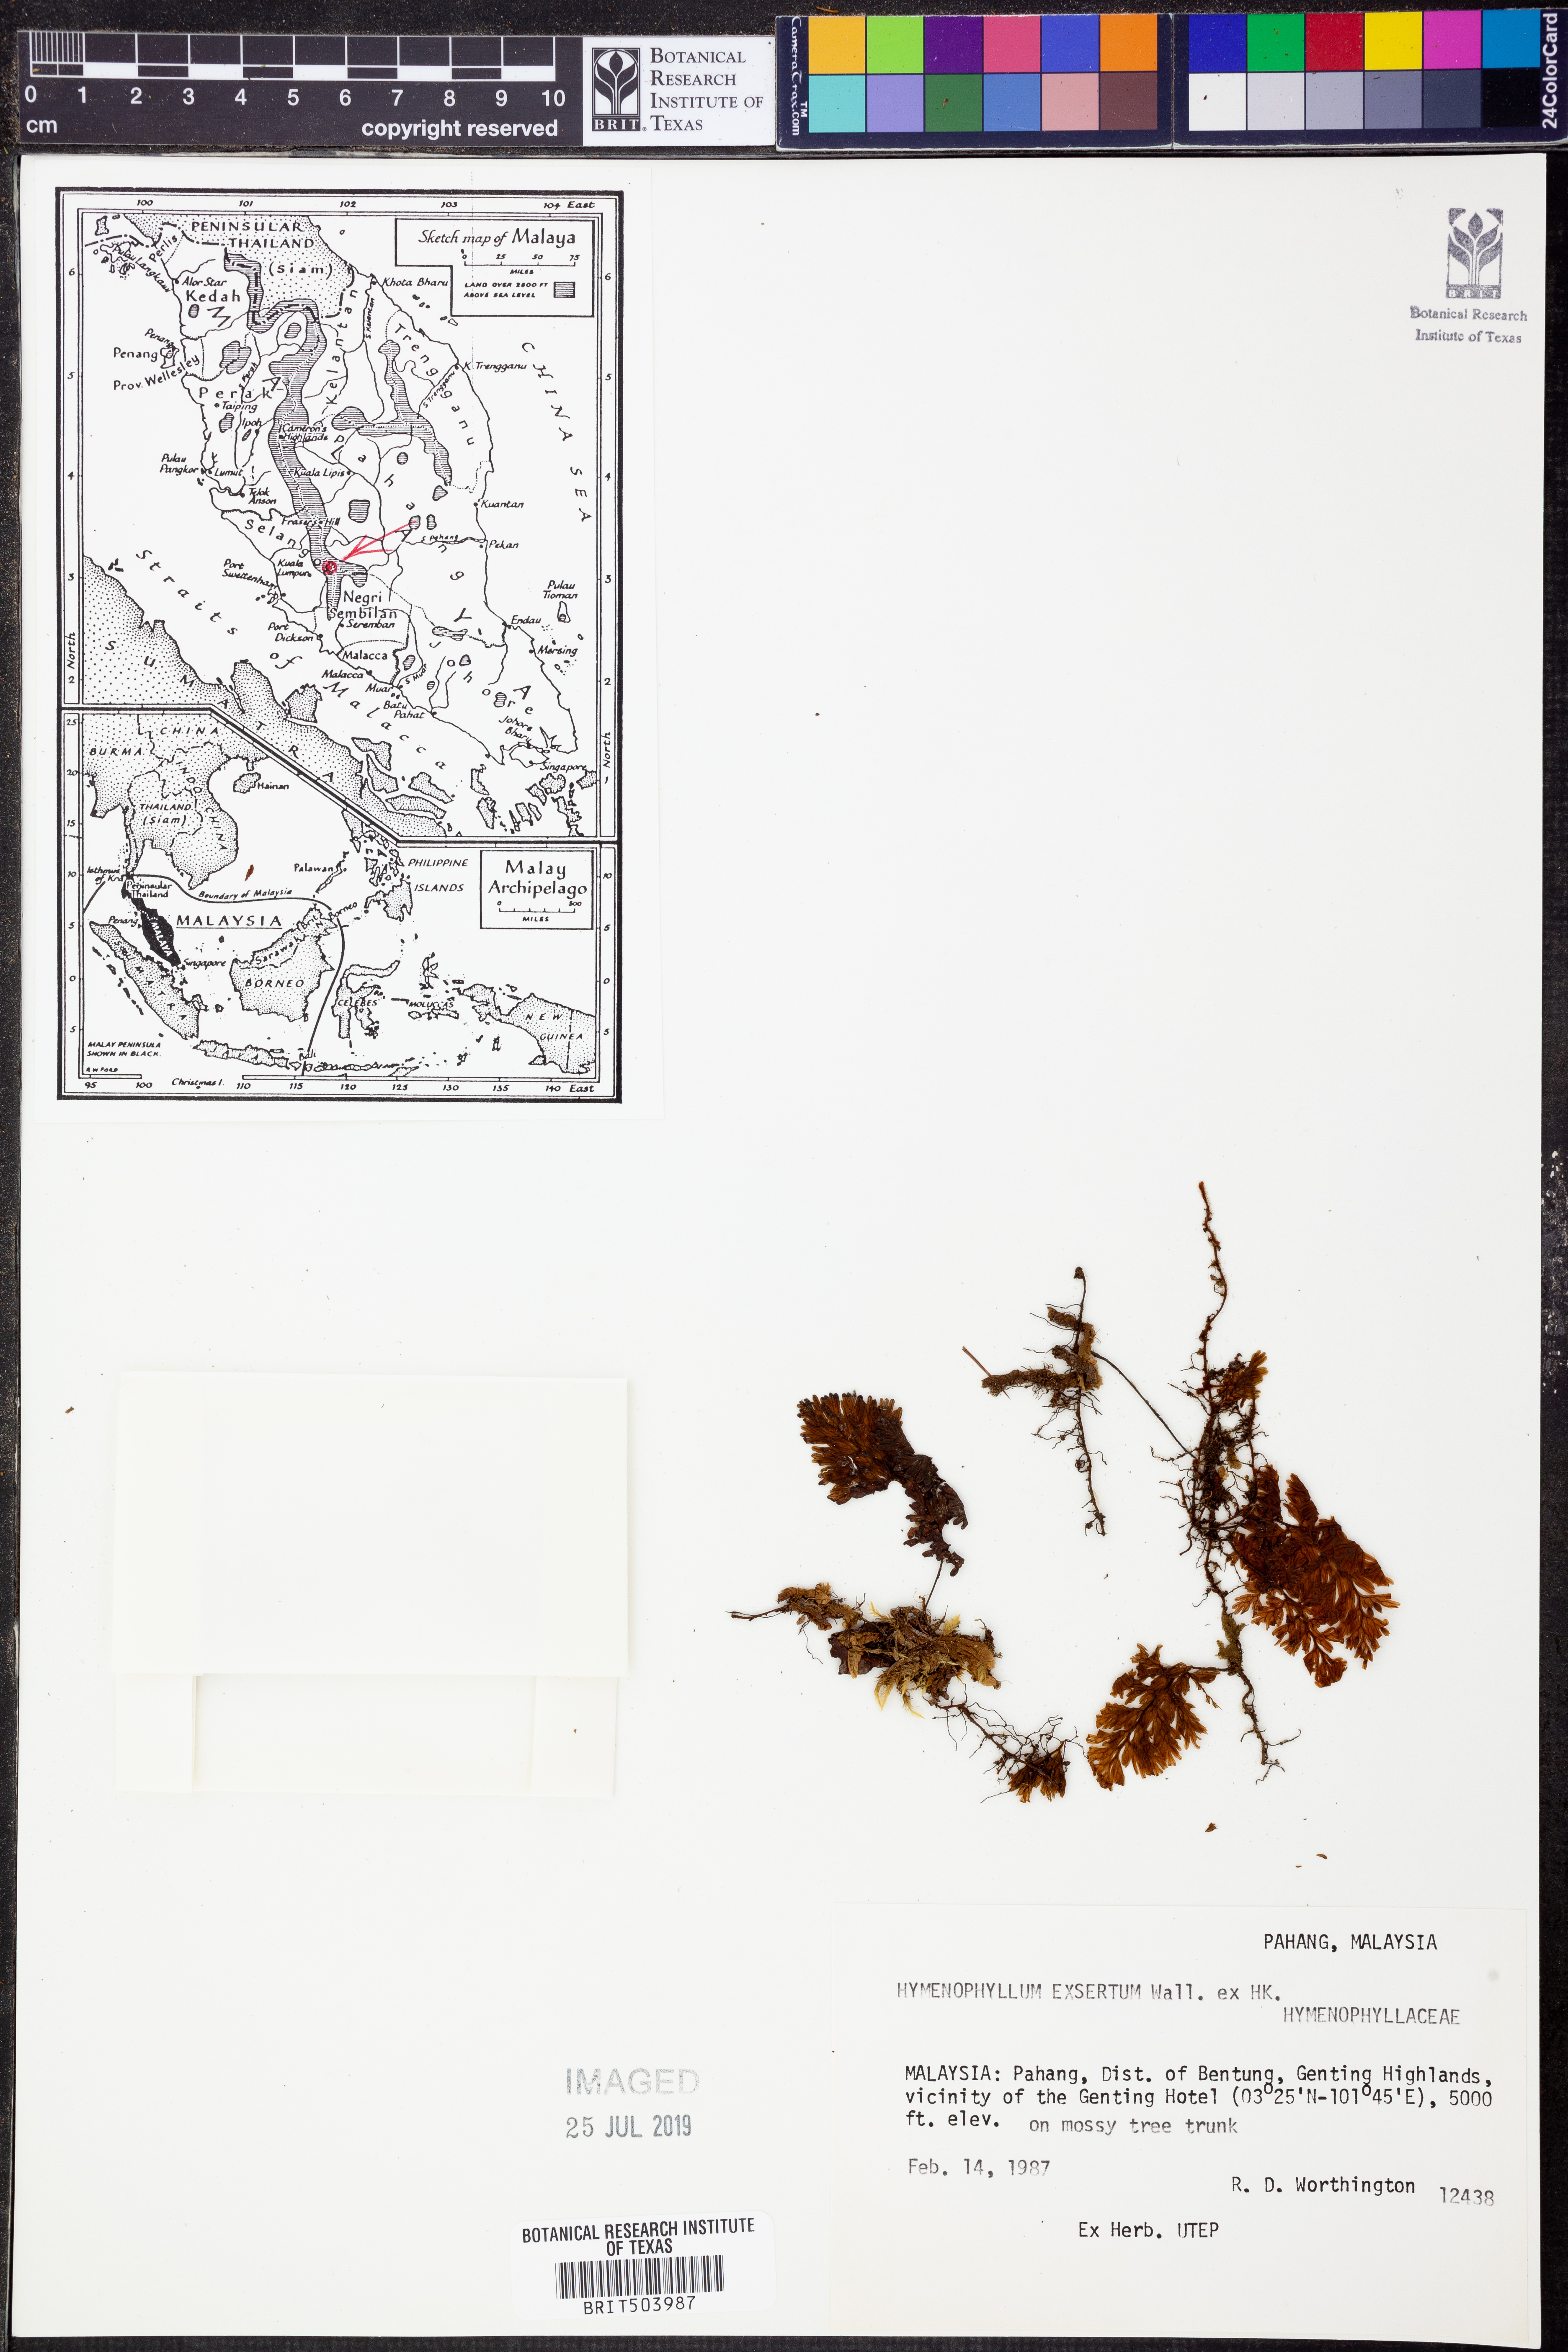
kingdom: Plantae
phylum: Tracheophyta
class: Polypodiopsida
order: Hymenophyllales
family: Hymenophyllaceae
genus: Hymenophyllum
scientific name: Hymenophyllum exsertum
